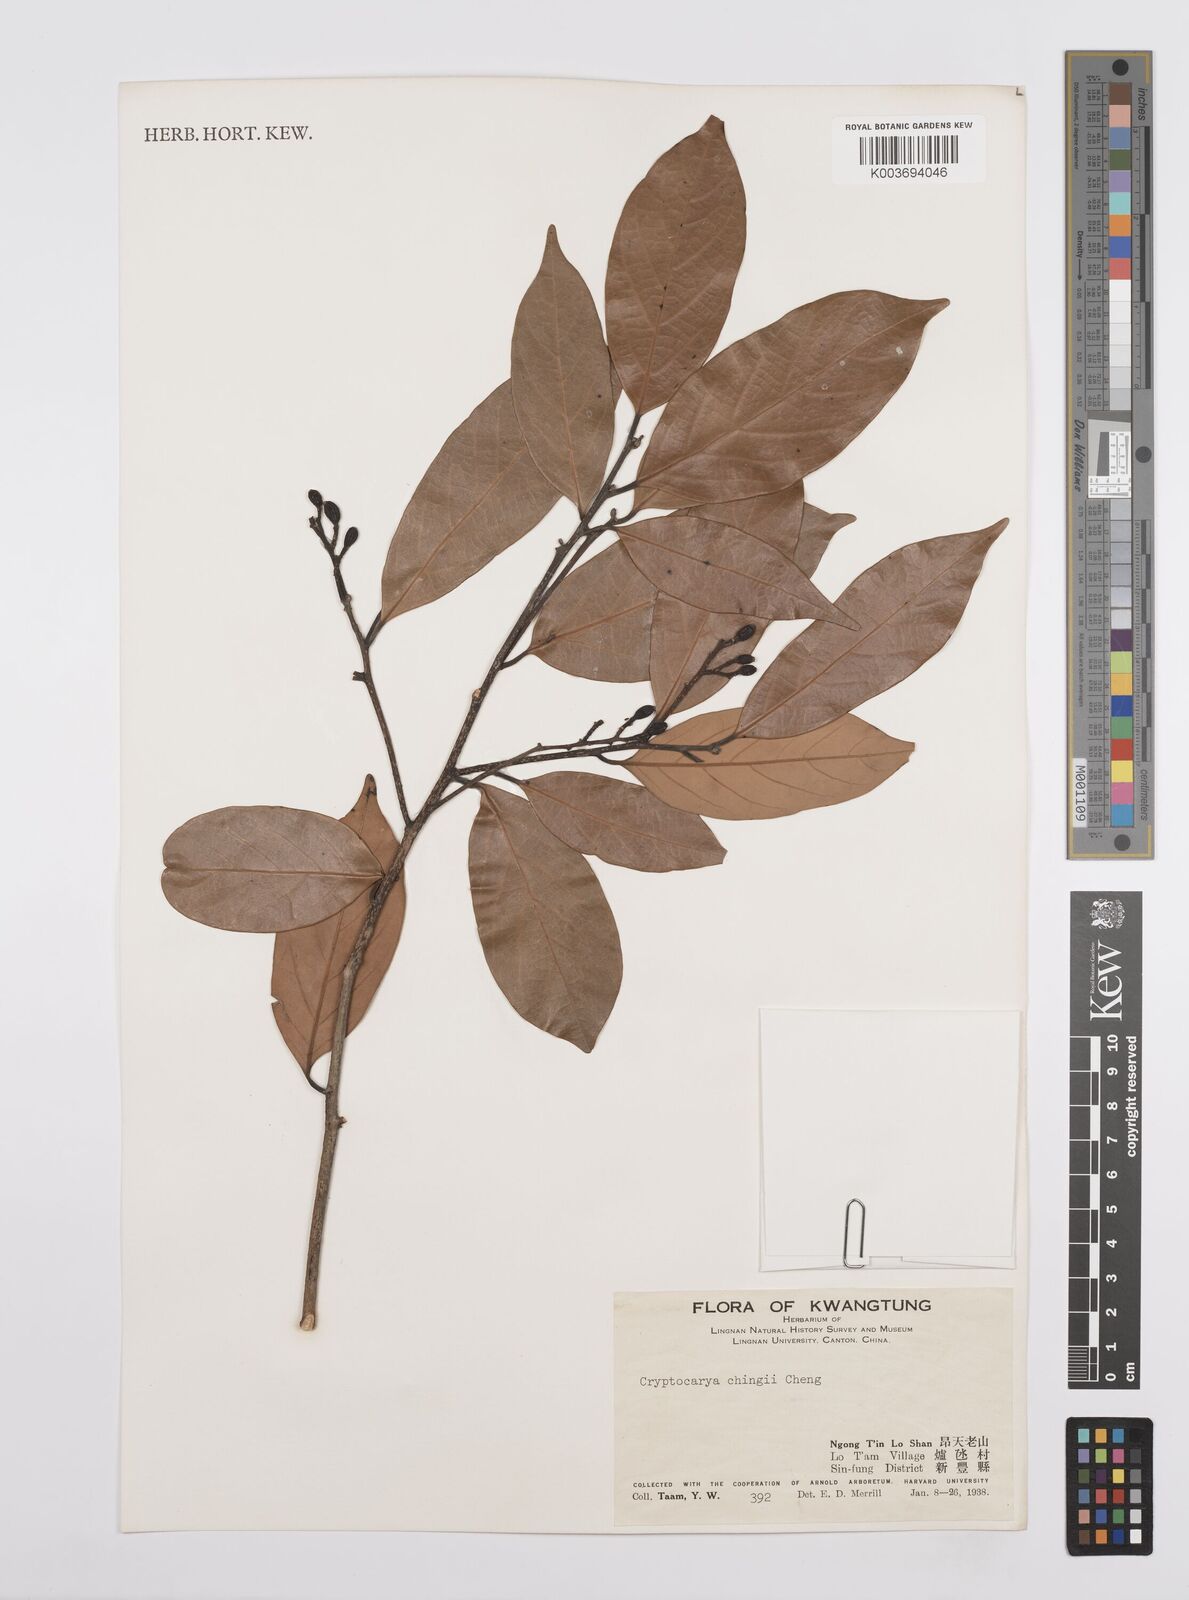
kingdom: Plantae
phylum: Tracheophyta
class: Magnoliopsida
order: Laurales
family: Lauraceae
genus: Cryptocarya
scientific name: Cryptocarya chingii
